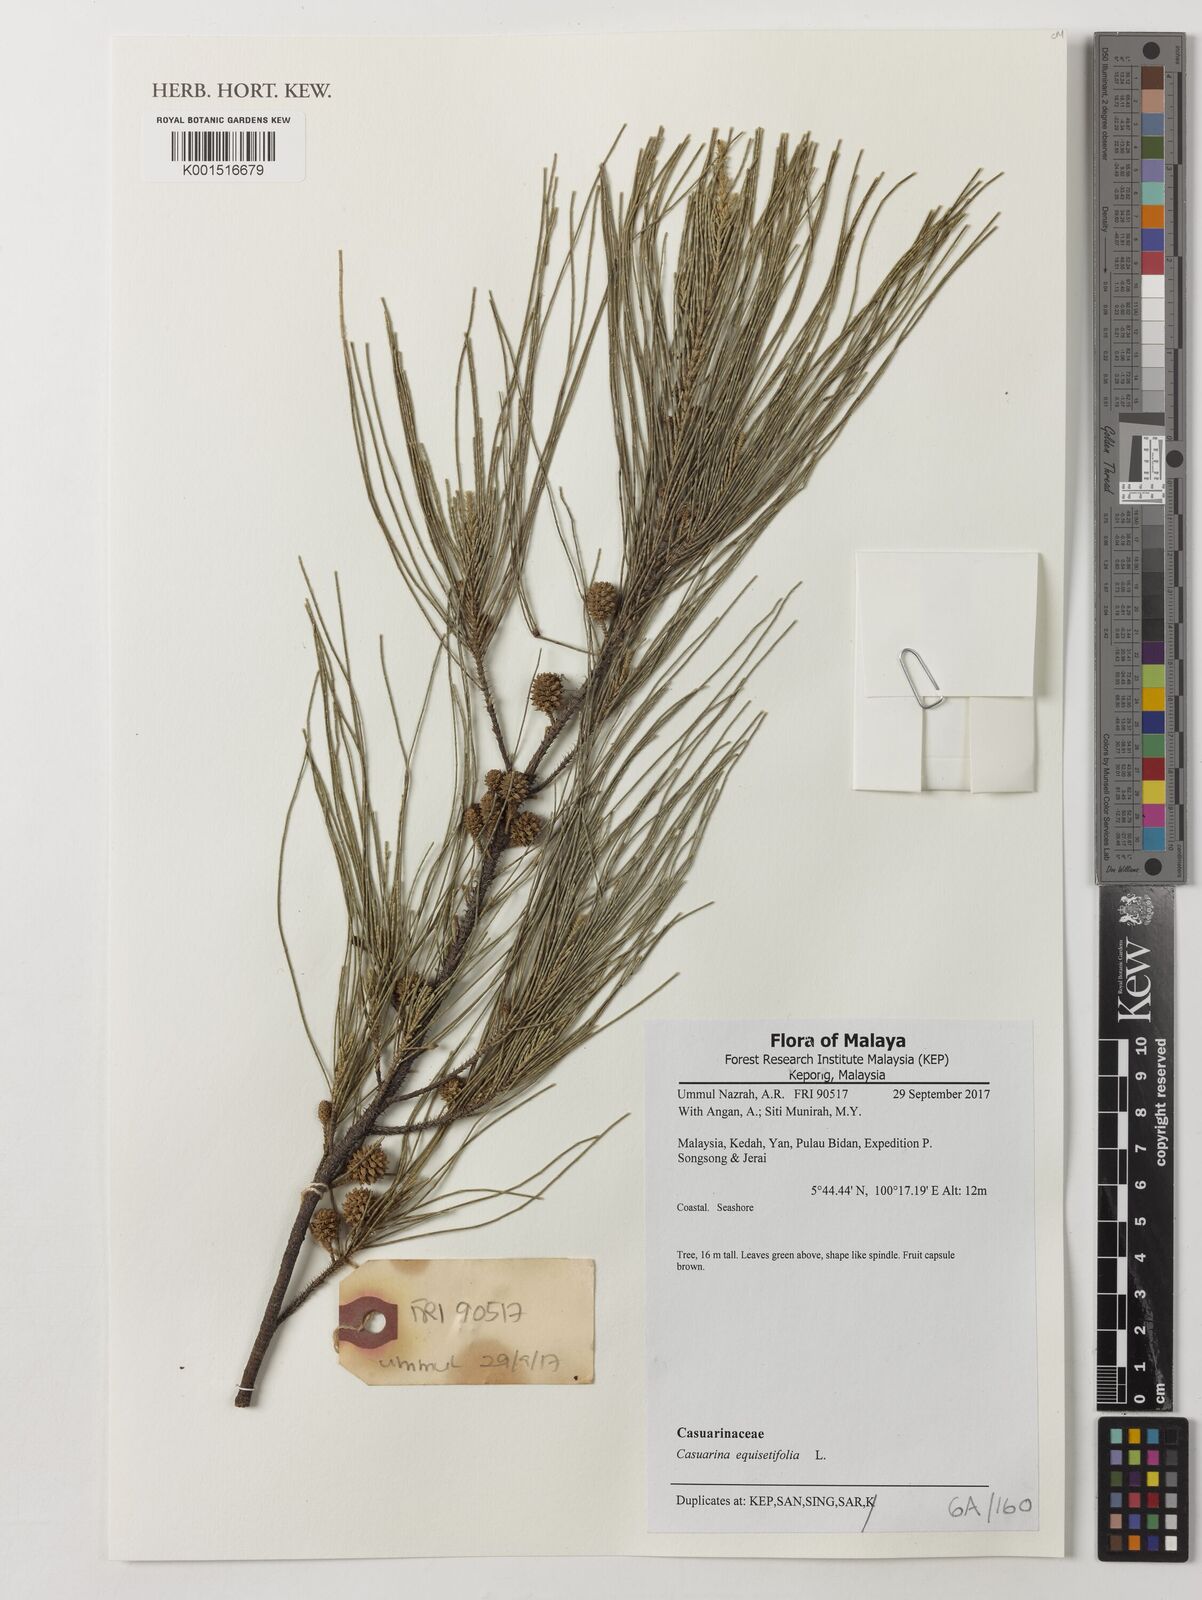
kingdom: Plantae
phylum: Tracheophyta
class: Magnoliopsida
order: Fagales
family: Casuarinaceae
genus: Casuarina
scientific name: Casuarina equisetifolia
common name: Beach sheoak
